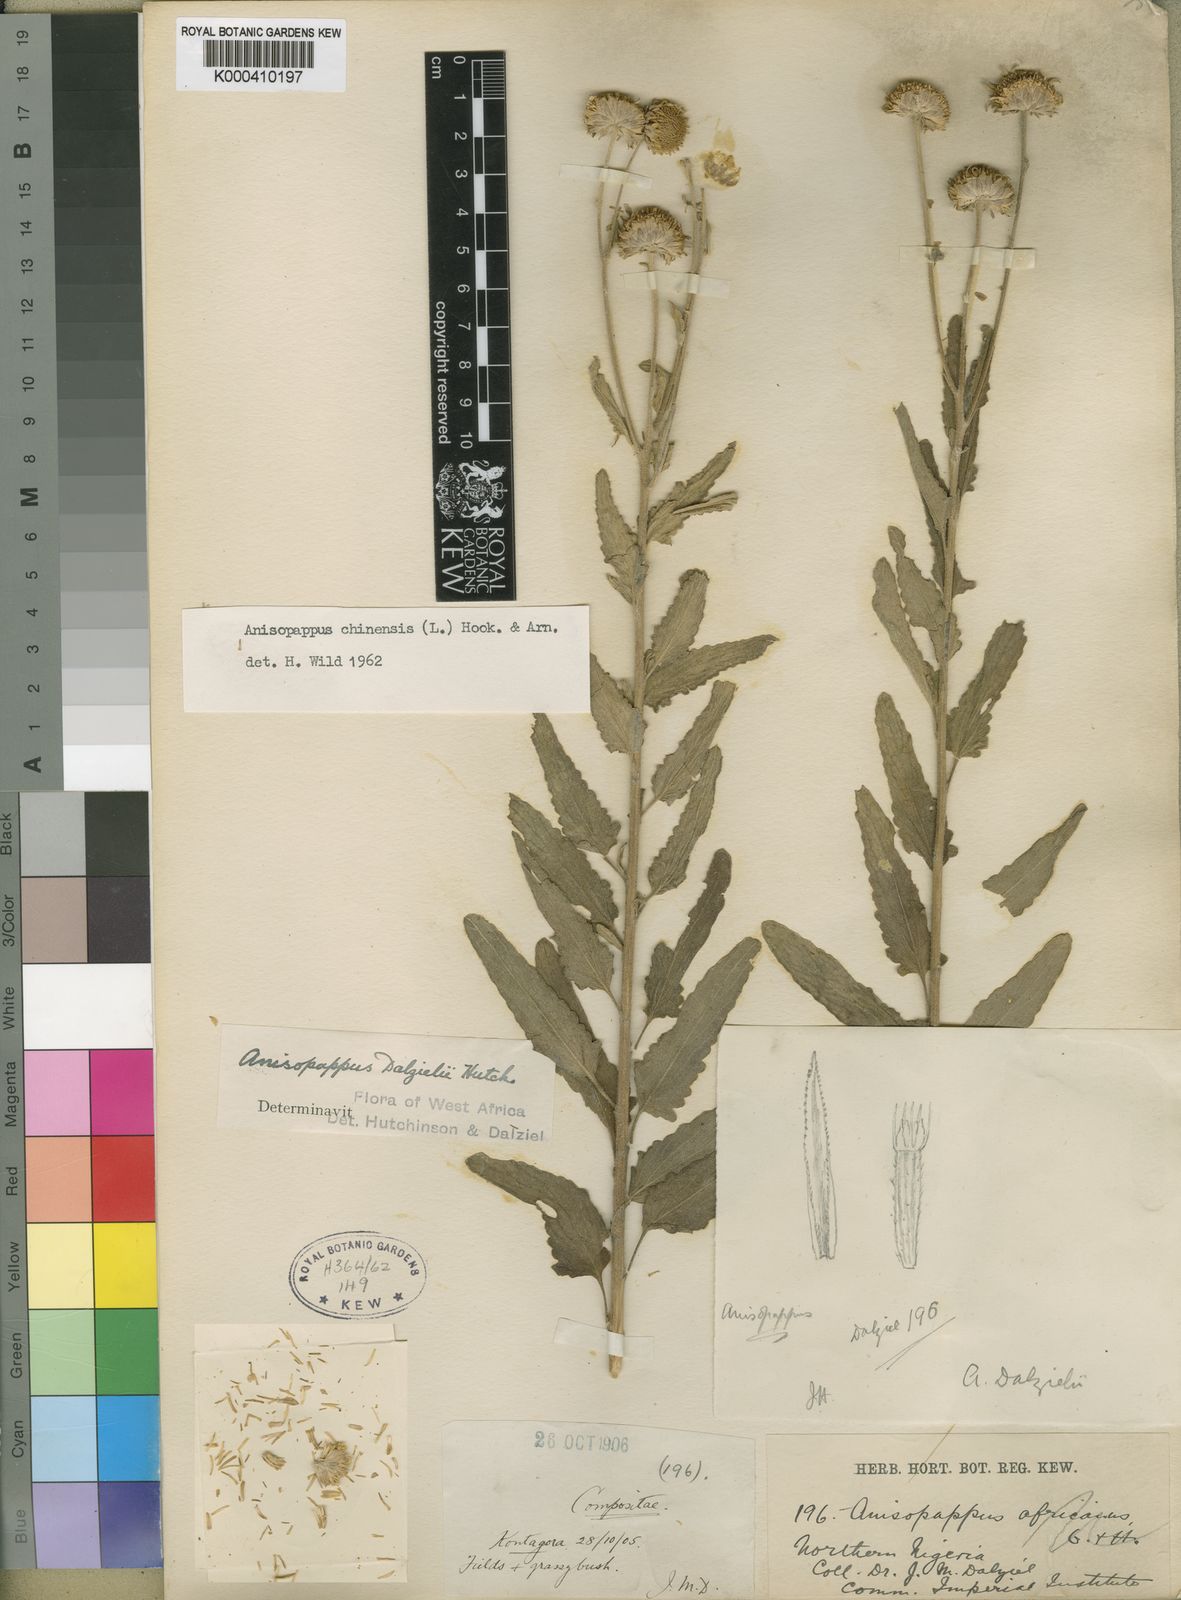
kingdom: Plantae
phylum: Tracheophyta
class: Magnoliopsida
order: Asterales
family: Asteraceae
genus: Anisopappus
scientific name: Anisopappus chinensis
